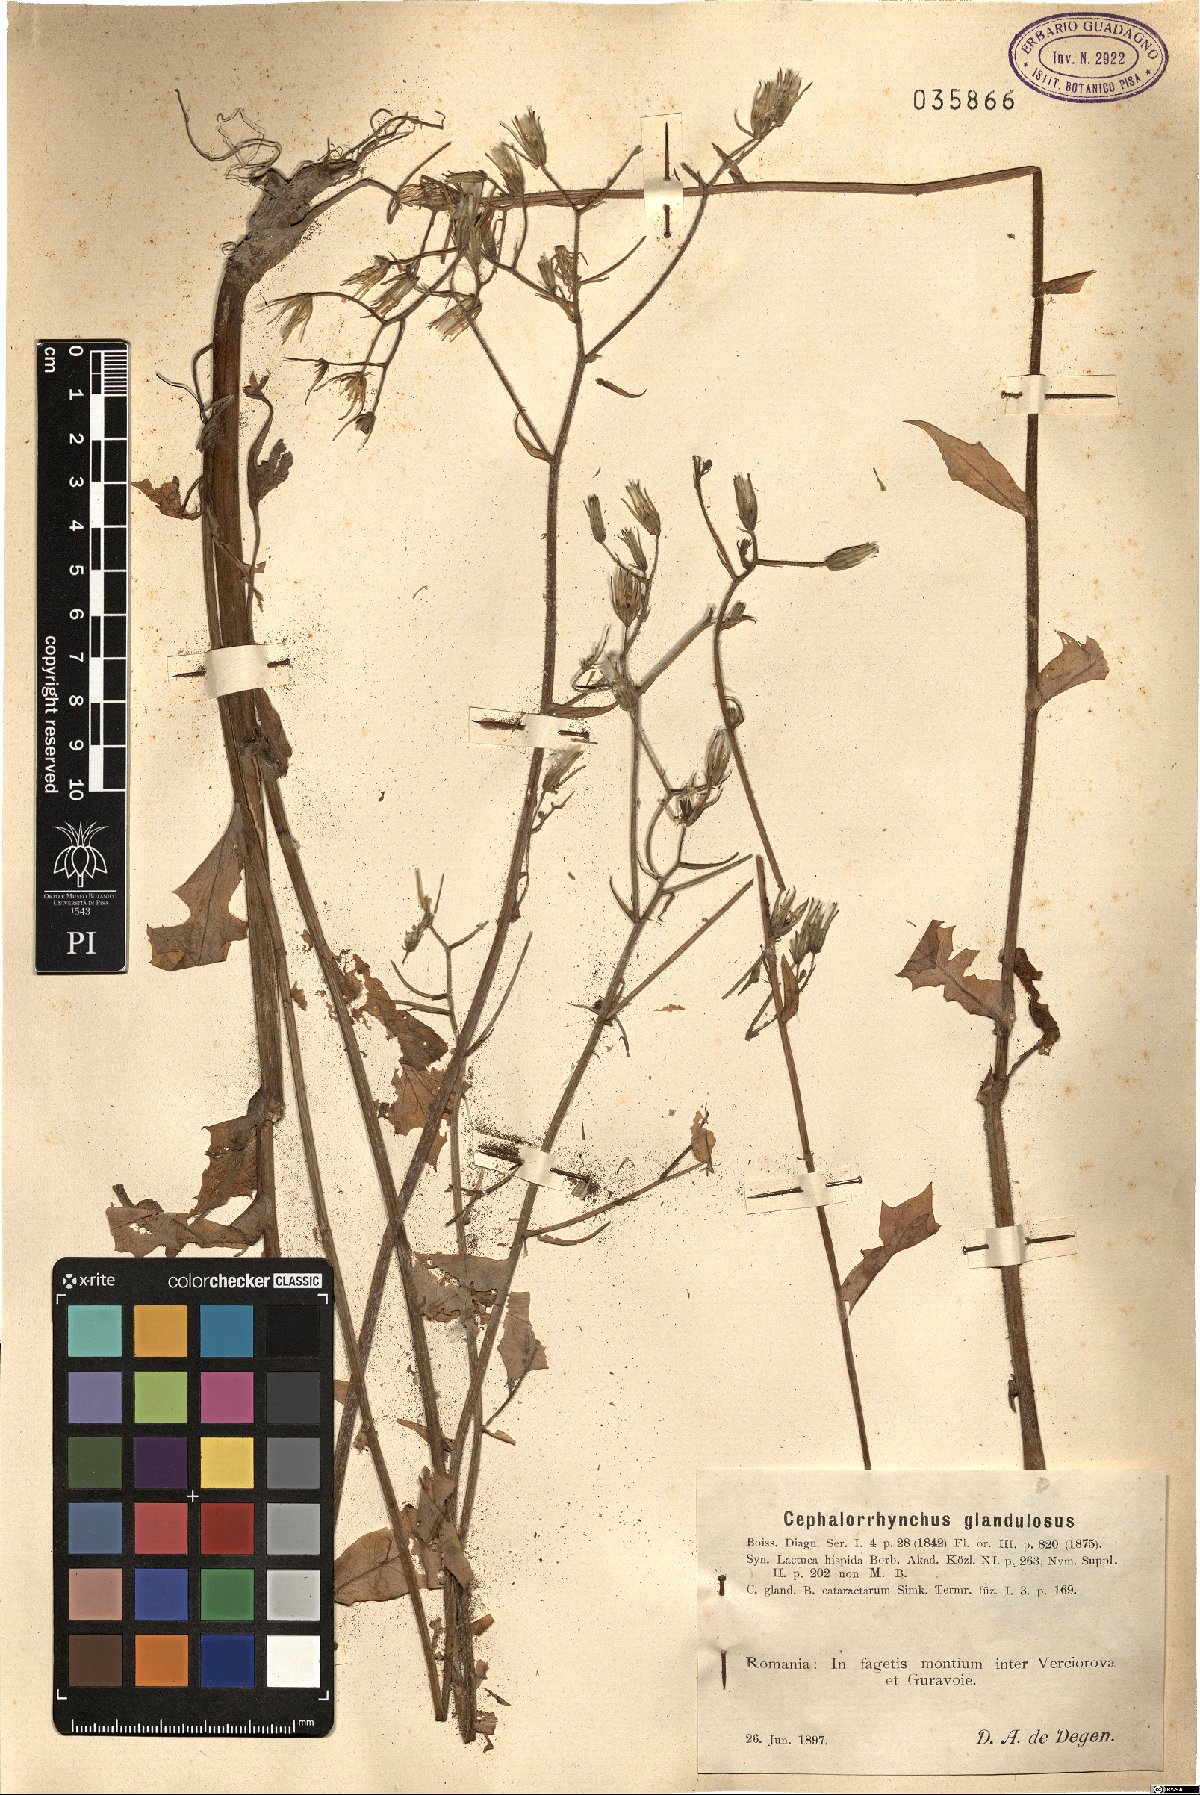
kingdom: Plantae
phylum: Tracheophyta
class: Magnoliopsida
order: Asterales
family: Asteraceae
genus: Lactuca
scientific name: Lactuca hispida
